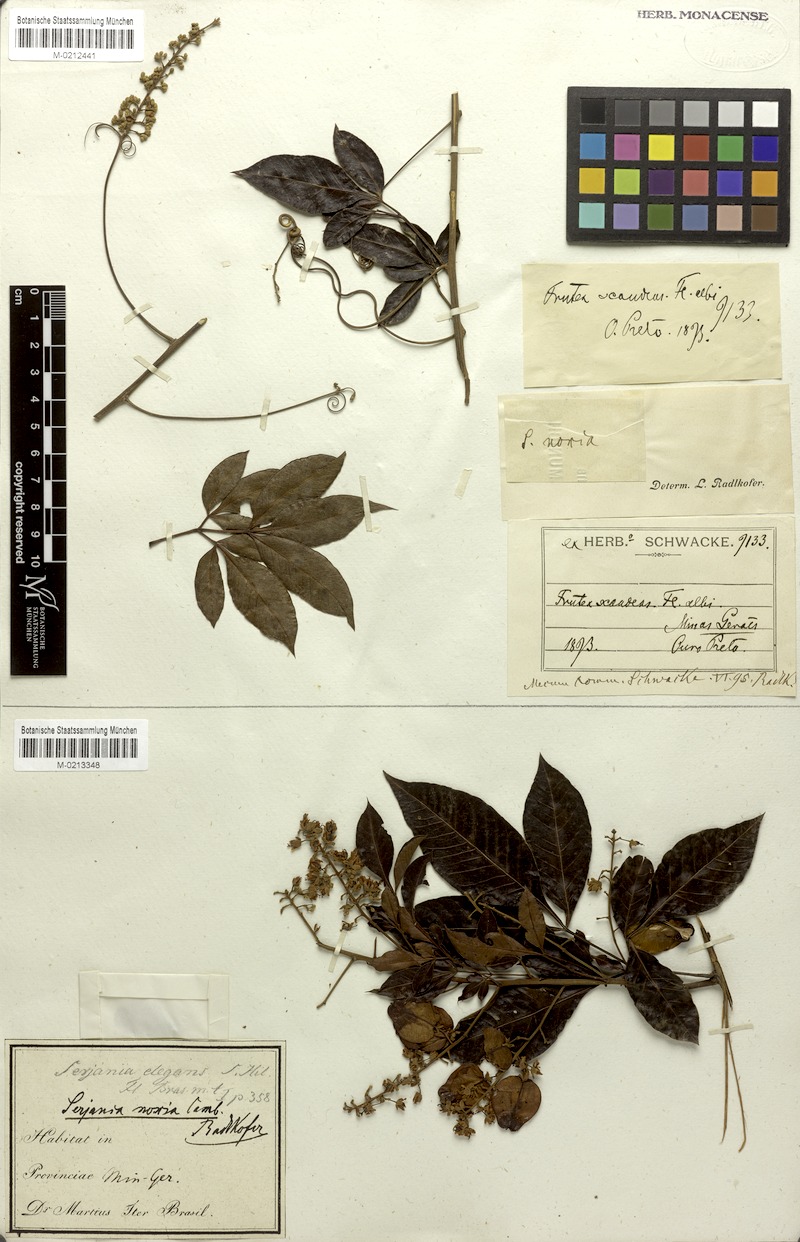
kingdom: Plantae
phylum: Tracheophyta
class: Magnoliopsida
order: Sapindales
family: Sapindaceae
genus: Serjania
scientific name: Serjania noxia
